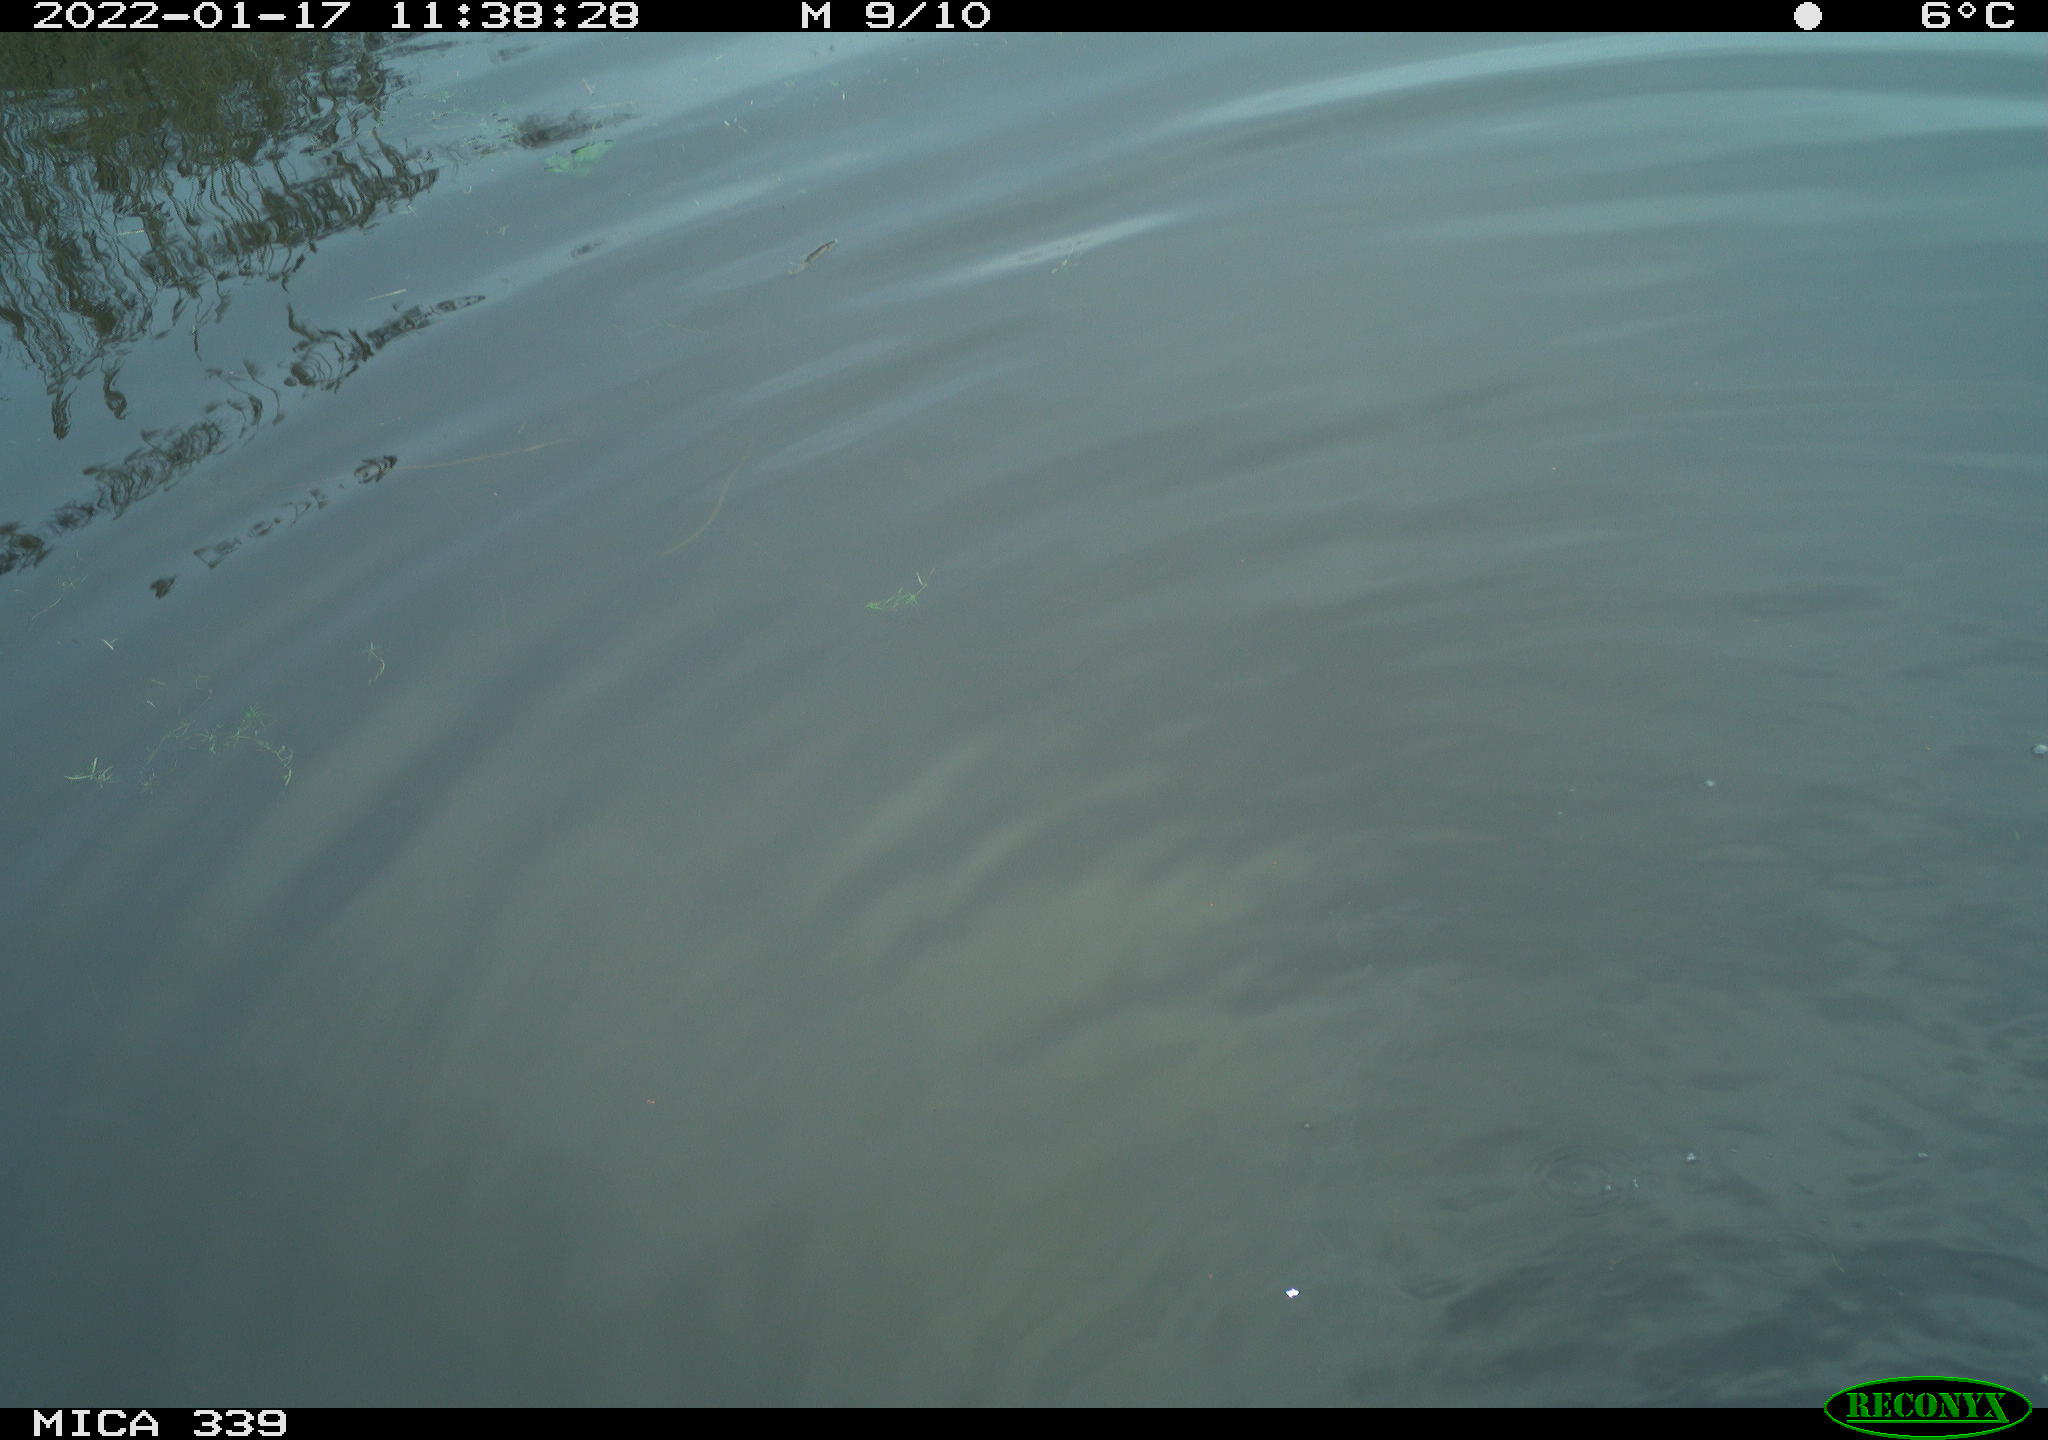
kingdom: Animalia
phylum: Chordata
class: Aves
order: Pelecaniformes
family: Ardeidae
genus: Ardea
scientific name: Ardea alba
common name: Great egret
